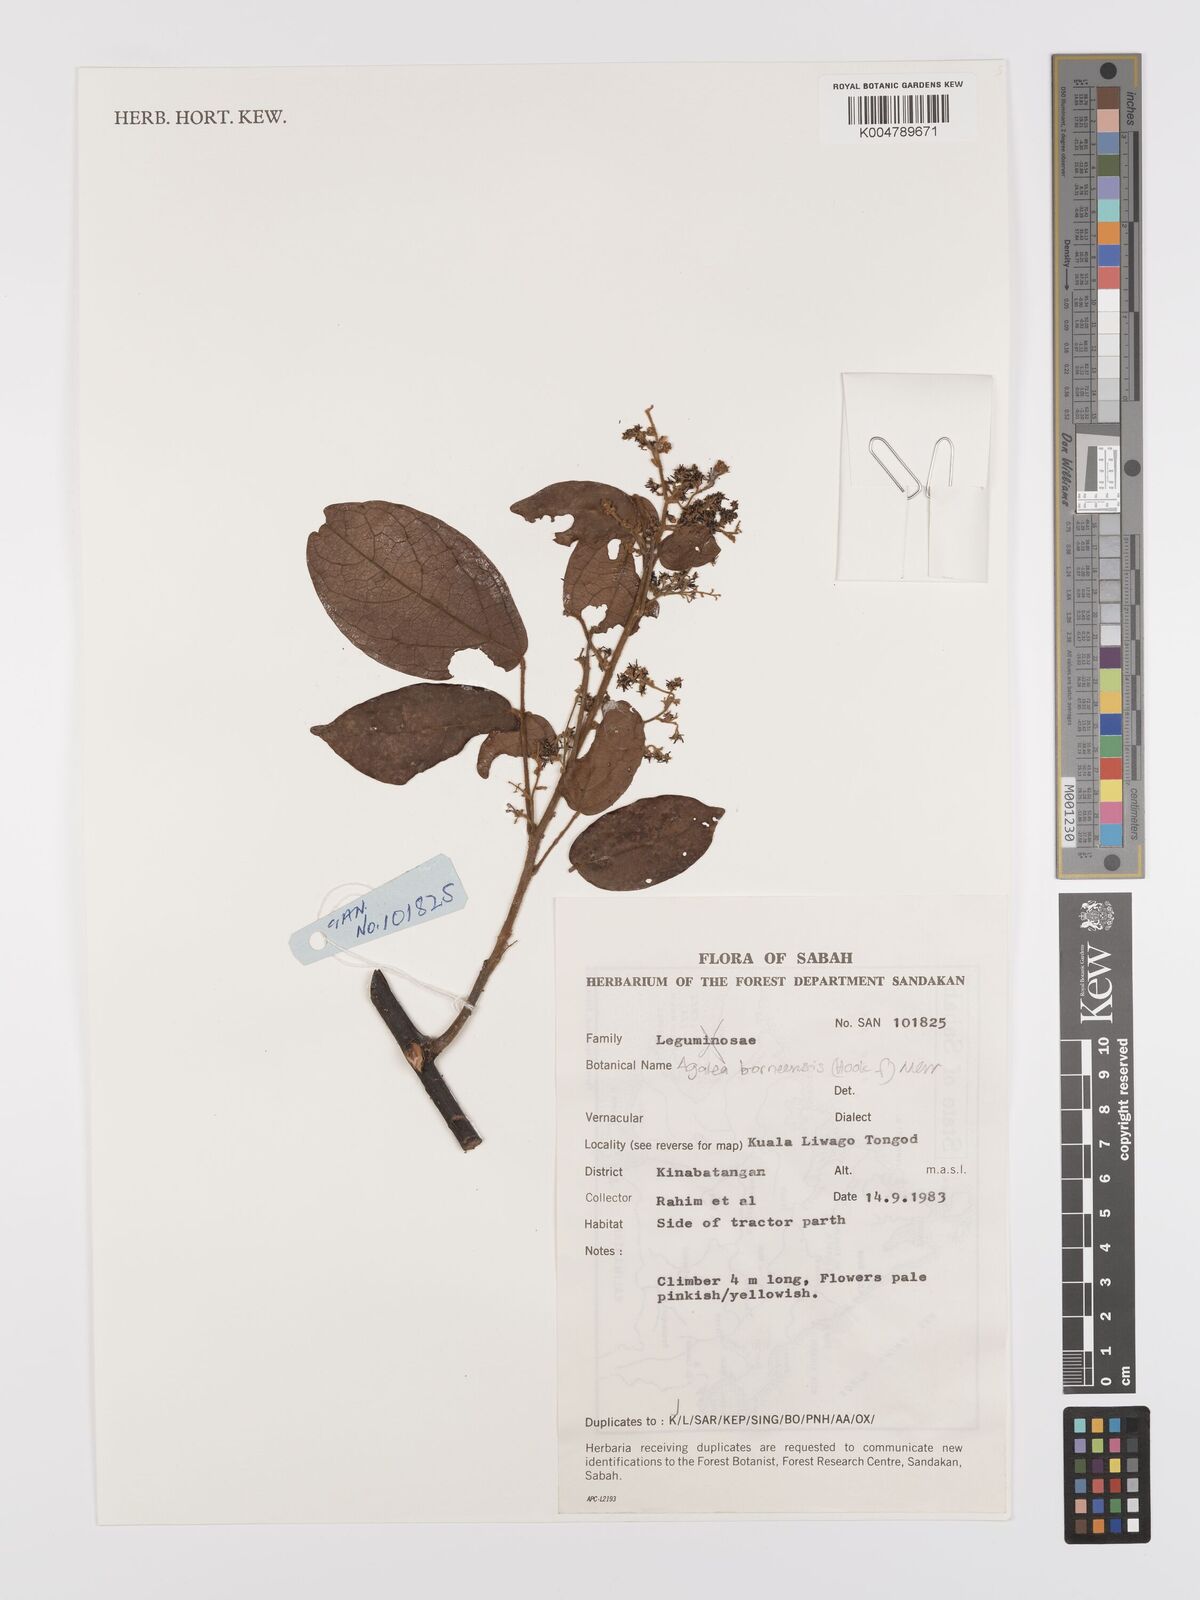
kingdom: Plantae
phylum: Tracheophyta
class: Magnoliopsida
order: Oxalidales
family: Connaraceae
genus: Agelaea
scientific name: Agelaea borneensis
